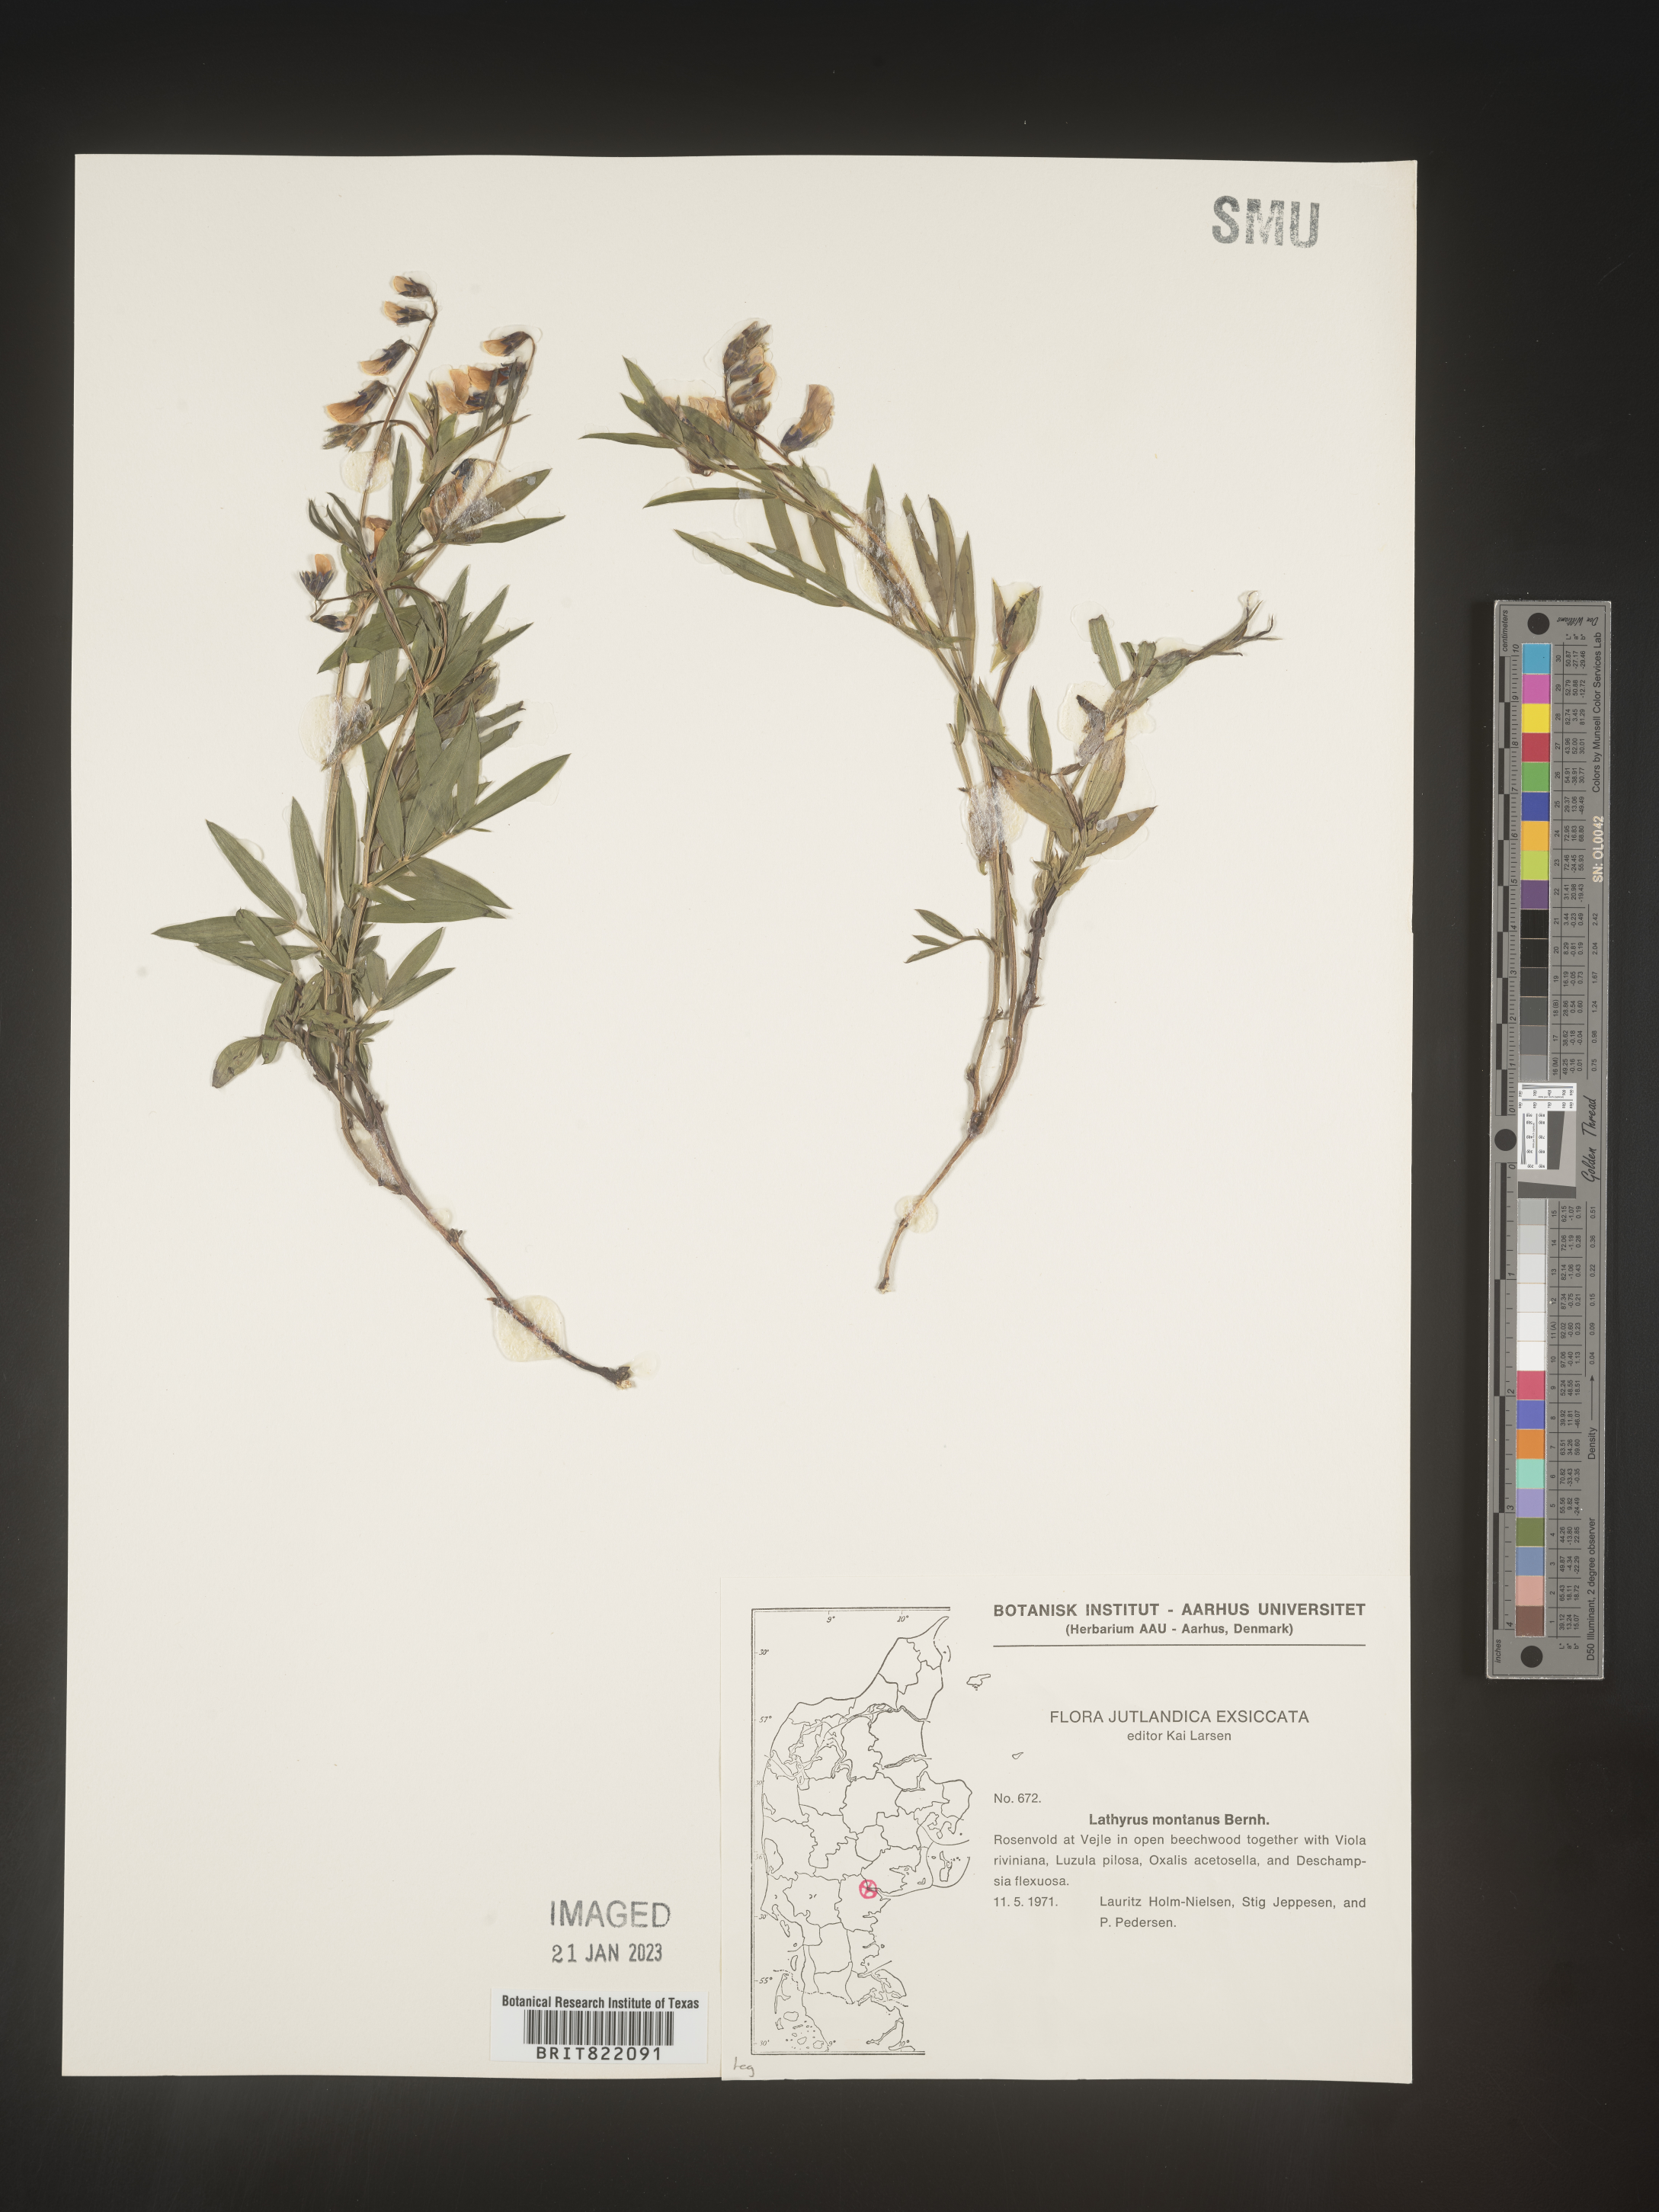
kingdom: Plantae
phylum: Tracheophyta
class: Magnoliopsida
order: Fabales
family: Fabaceae
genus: Lathyrus
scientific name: Lathyrus
